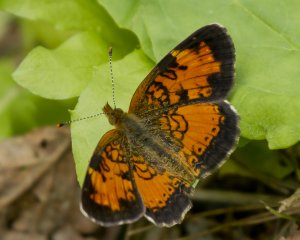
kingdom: Animalia
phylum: Arthropoda
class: Insecta
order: Lepidoptera
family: Nymphalidae
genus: Phyciodes
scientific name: Phyciodes tharos
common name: Northern Crescent
